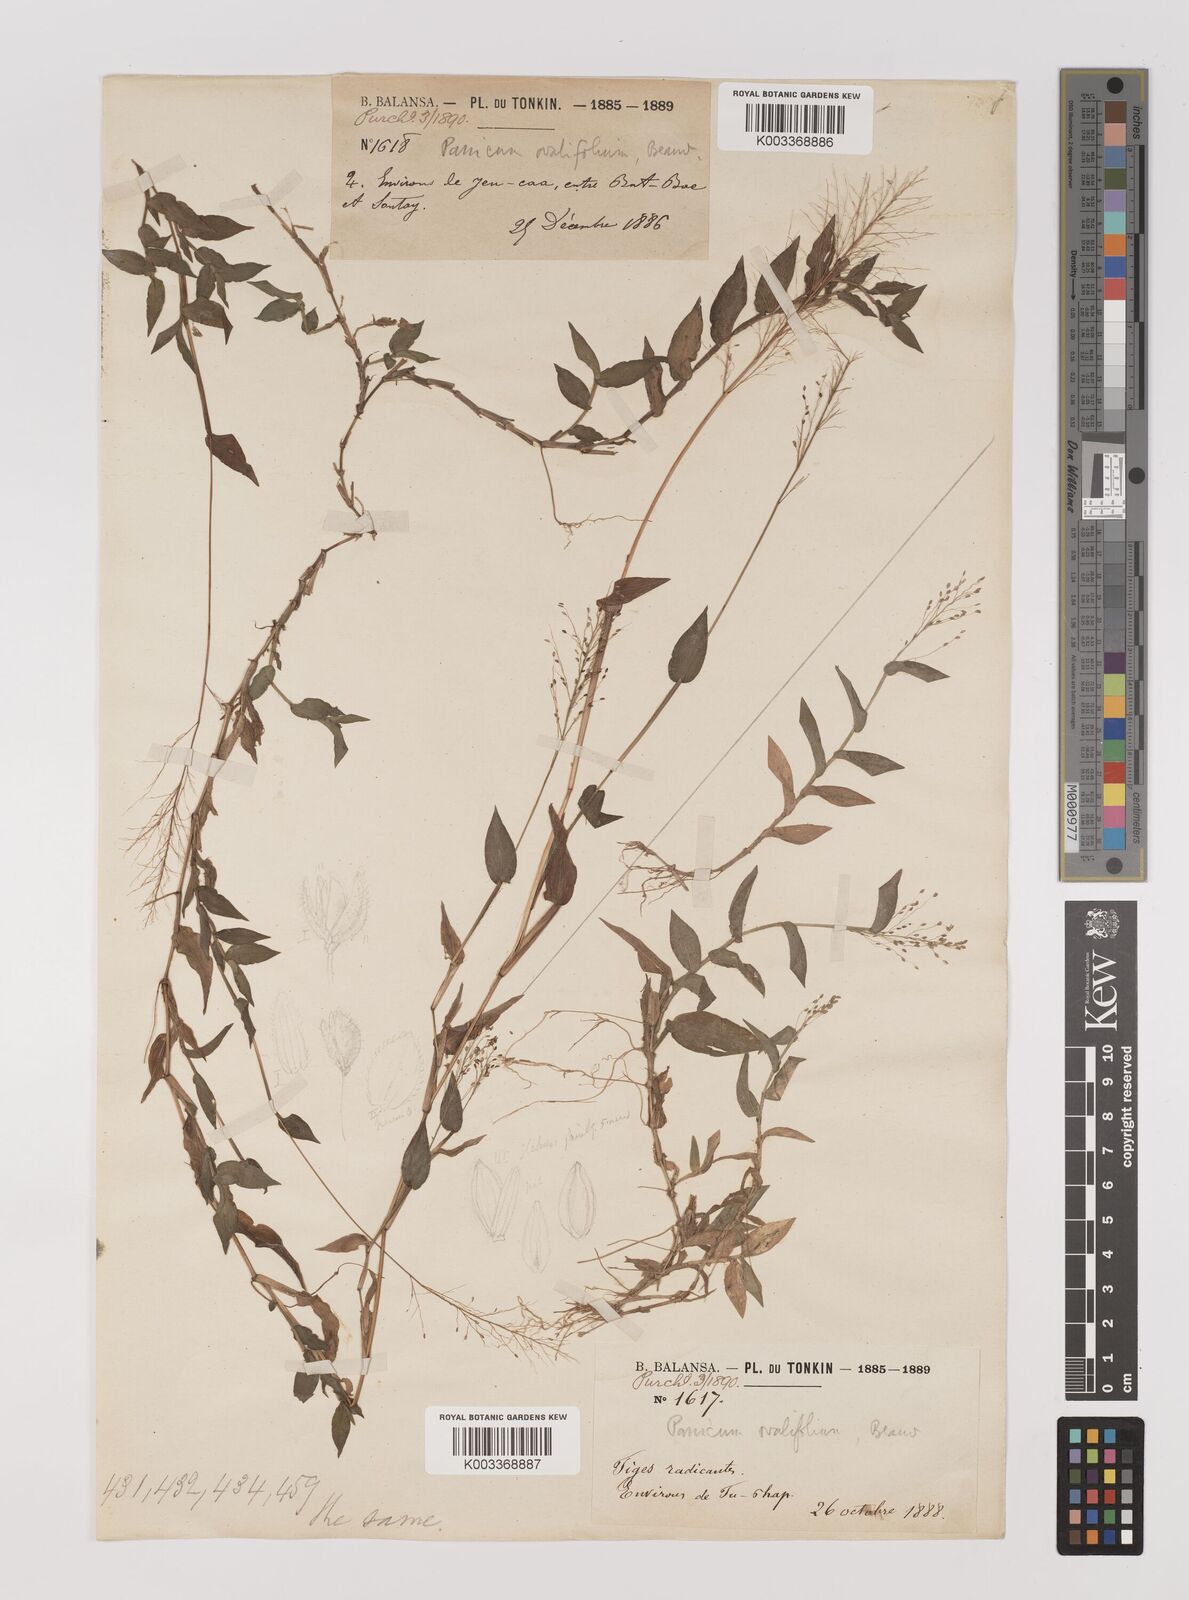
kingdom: Plantae
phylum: Tracheophyta
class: Liliopsida
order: Poales
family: Poaceae
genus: Panicum
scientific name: Panicum brevifolium
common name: Shortleaf panic grass
